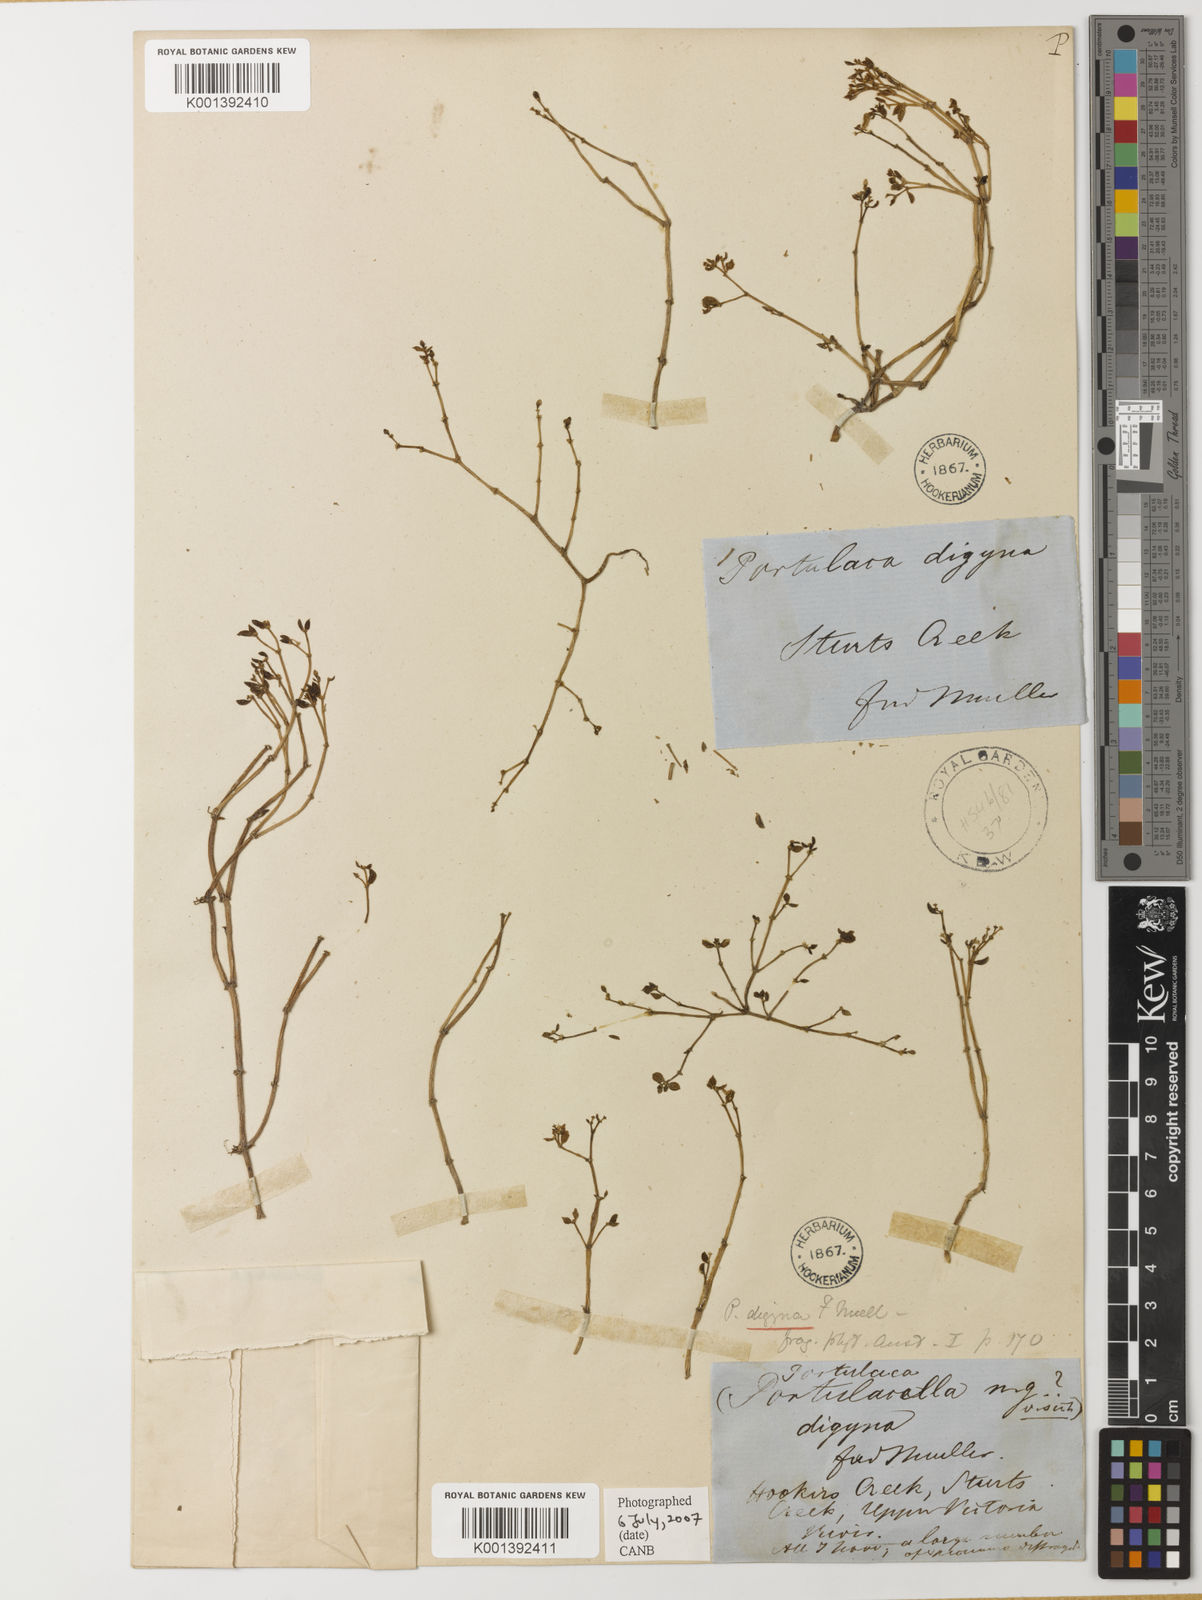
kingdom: Plantae
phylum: Tracheophyta
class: Magnoliopsida
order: Caryophyllales
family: Portulacaceae
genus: Portulaca
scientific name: Portulaca digyna
